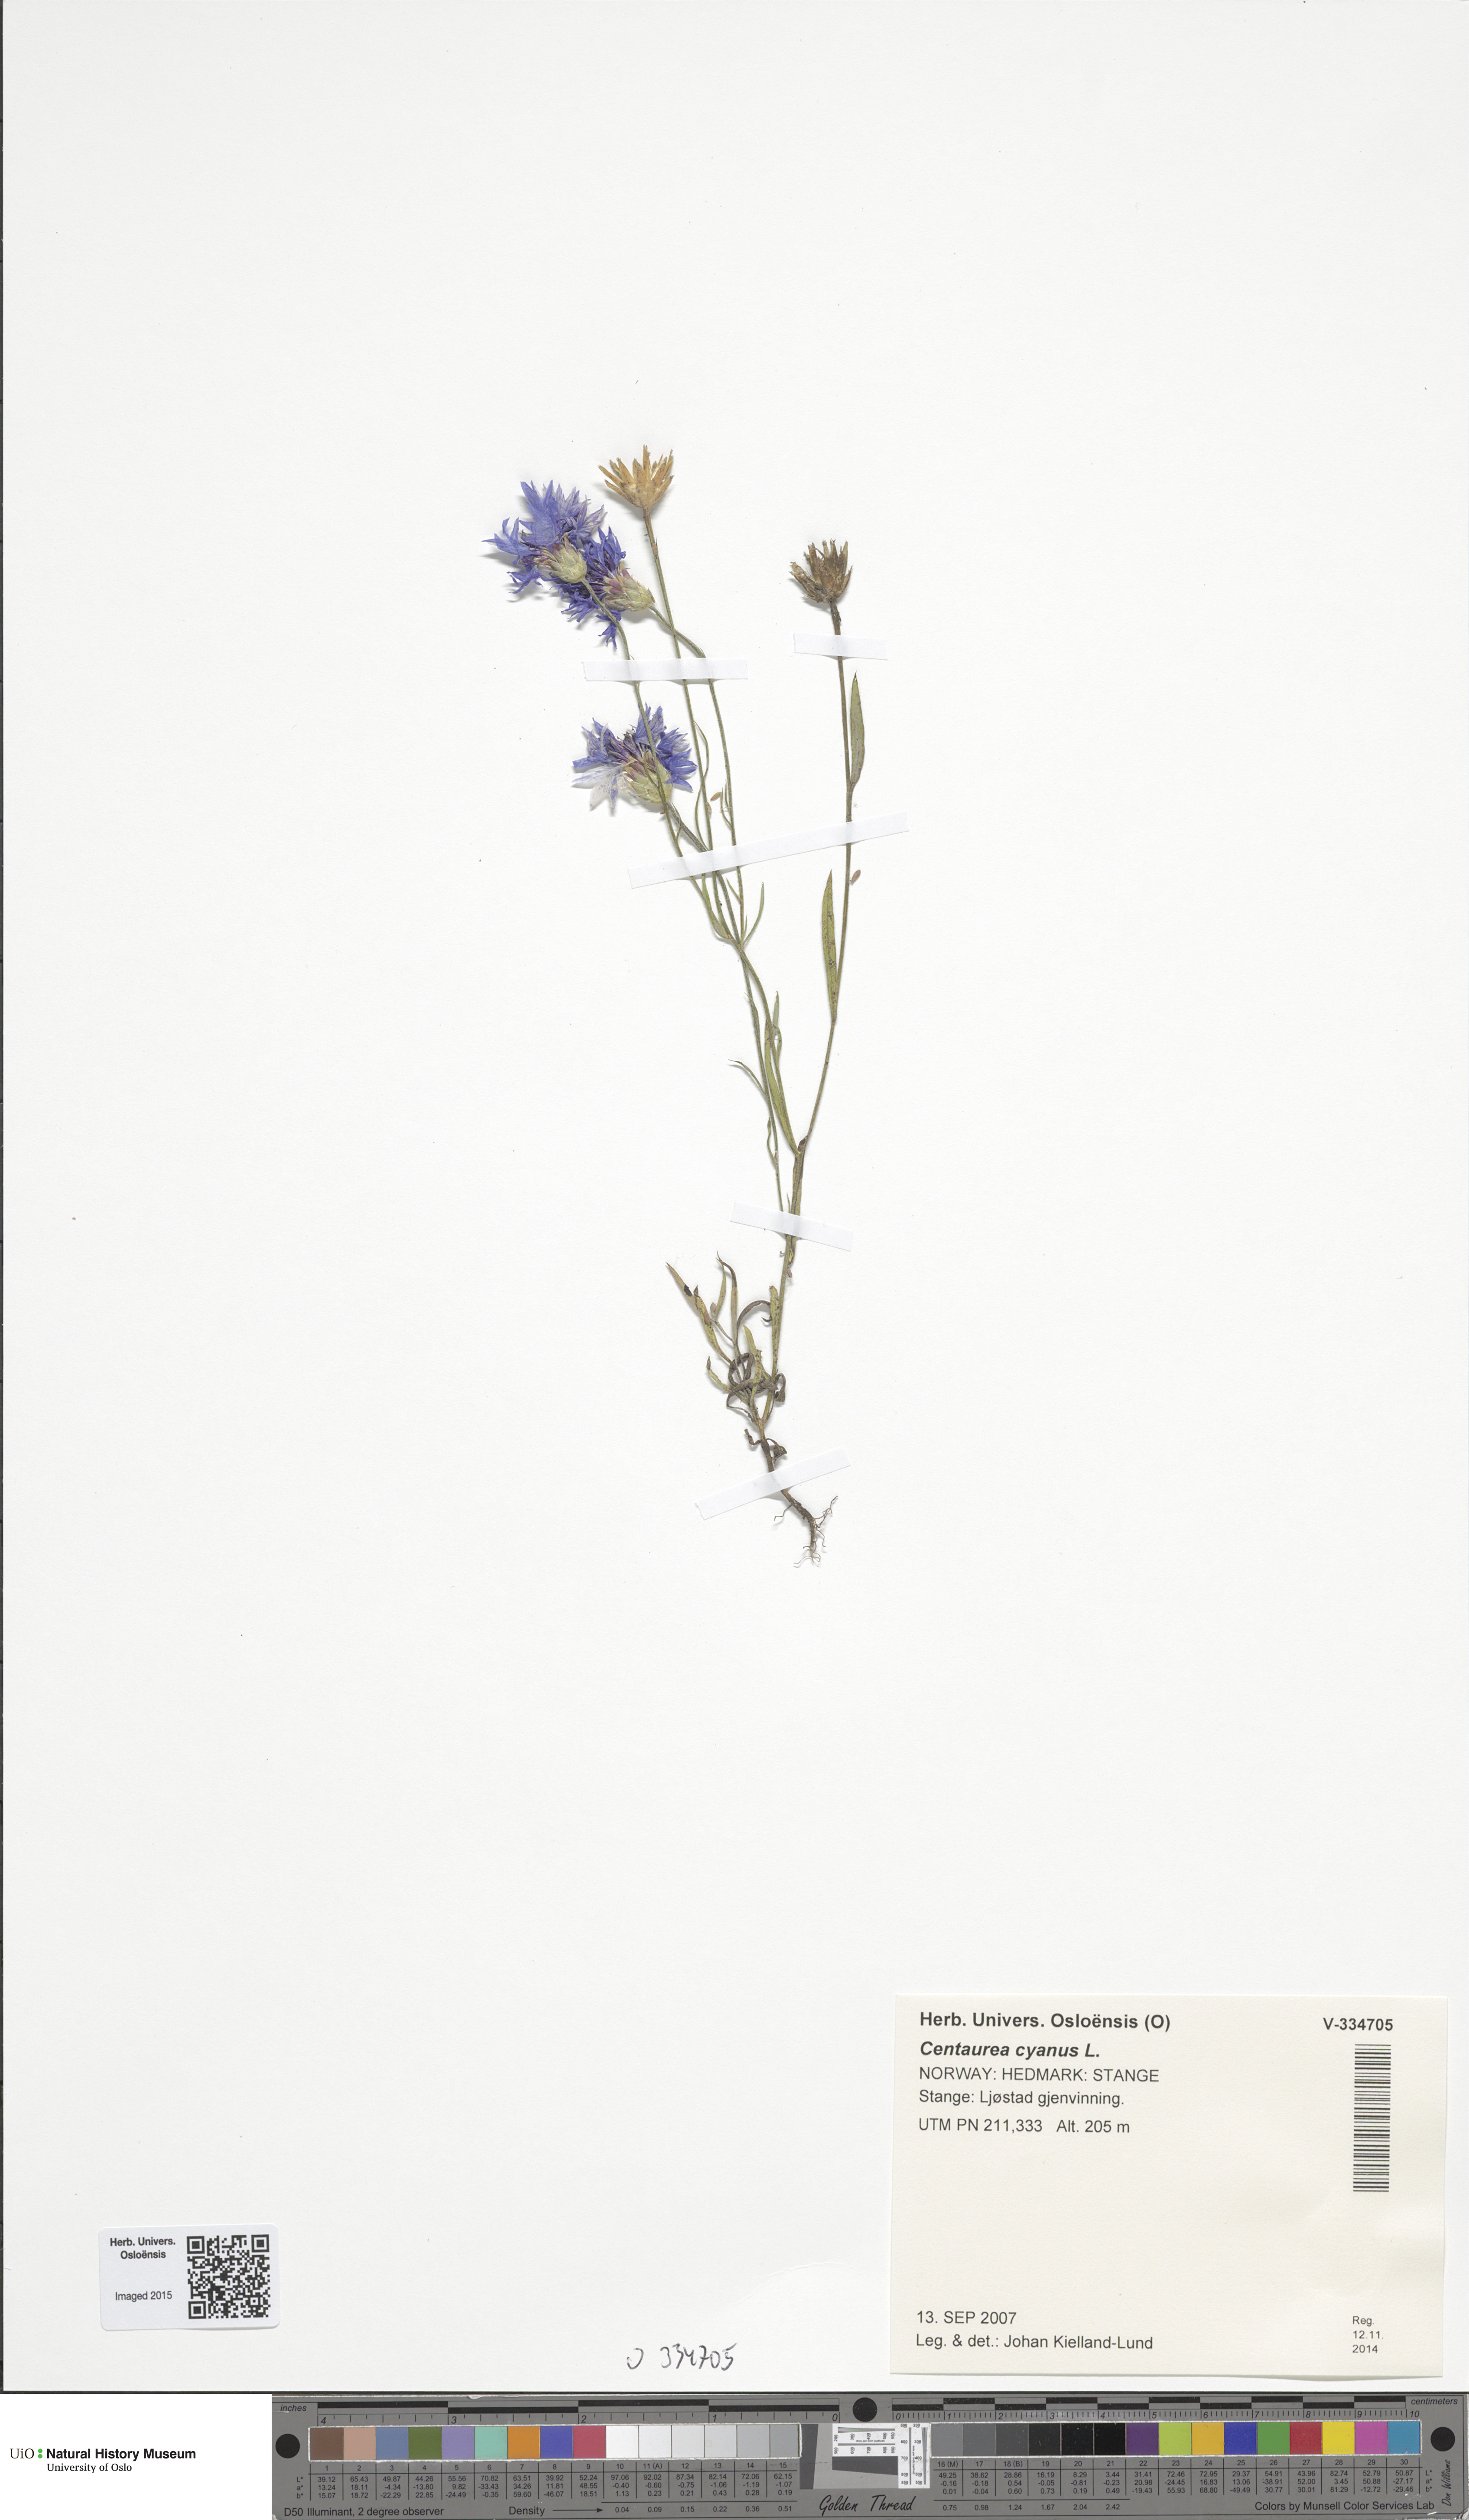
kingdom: Plantae
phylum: Tracheophyta
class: Magnoliopsida
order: Asterales
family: Asteraceae
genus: Centaurea
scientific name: Centaurea cyanus
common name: Cornflower
